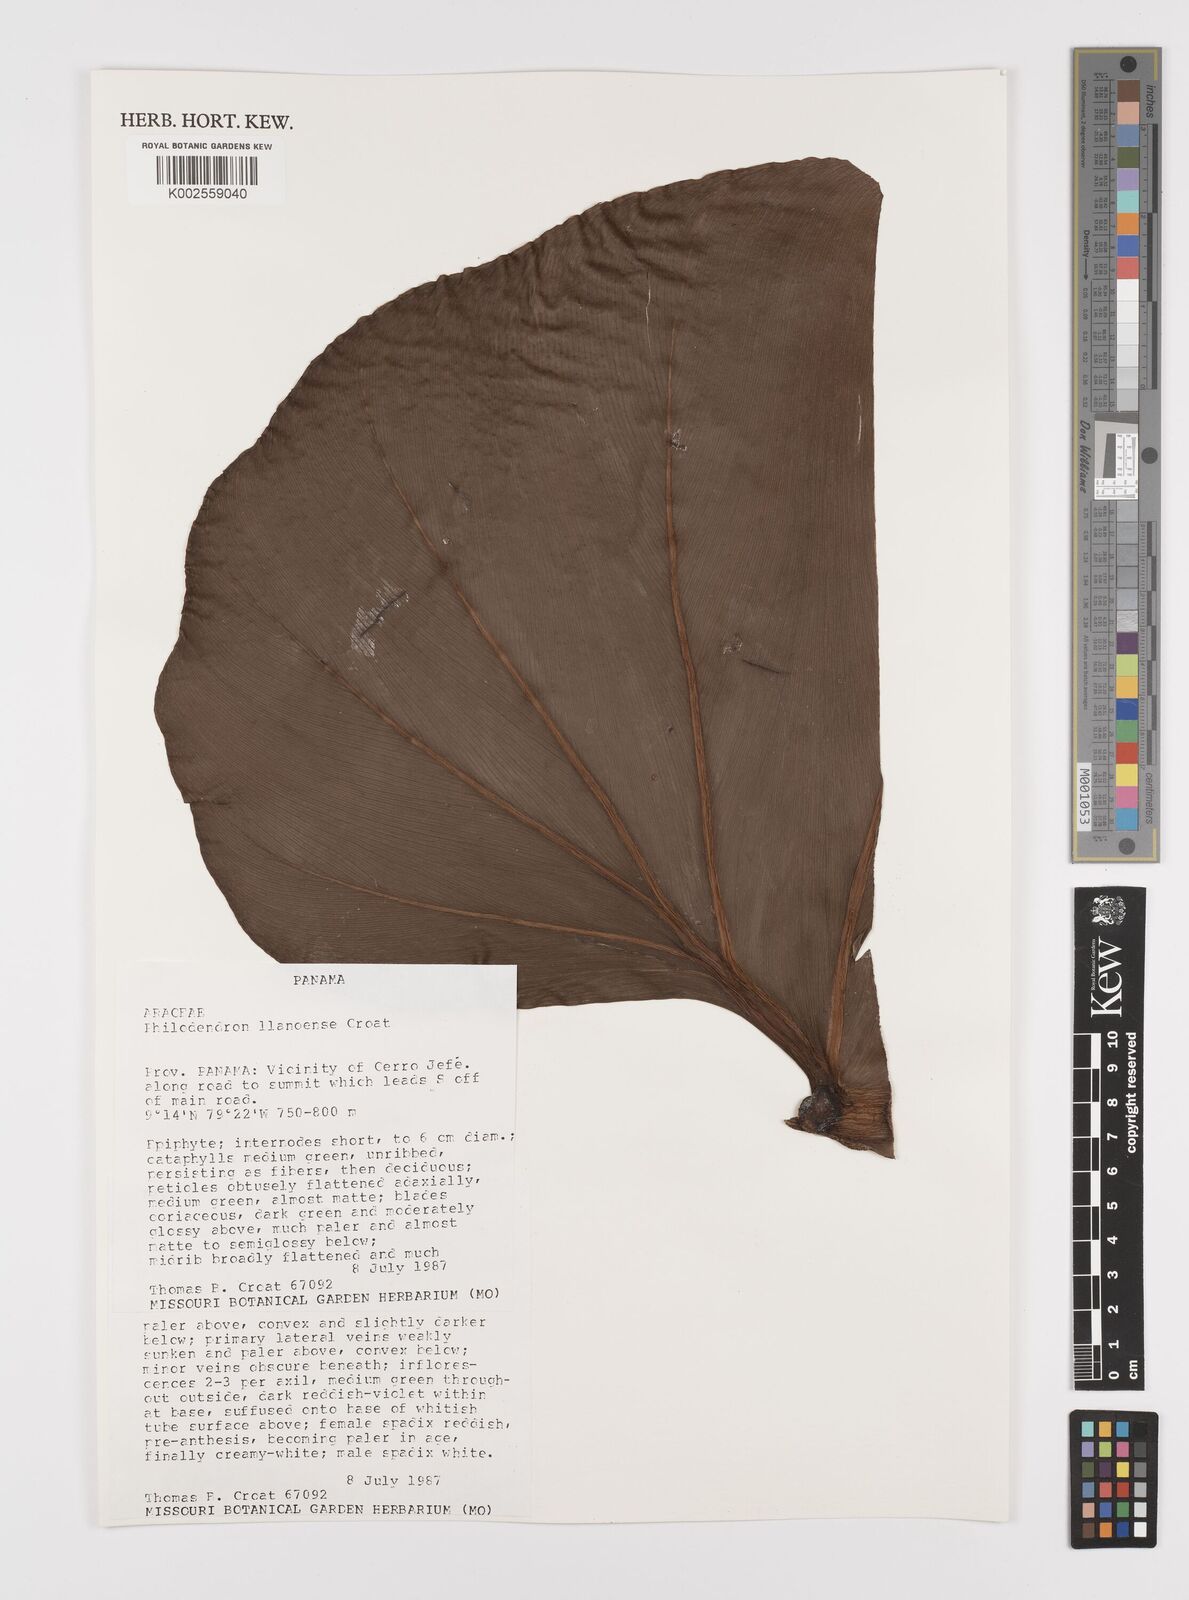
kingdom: Plantae
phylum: Tracheophyta
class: Liliopsida
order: Alismatales
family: Araceae
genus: Philodendron
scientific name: Philodendron llanense
